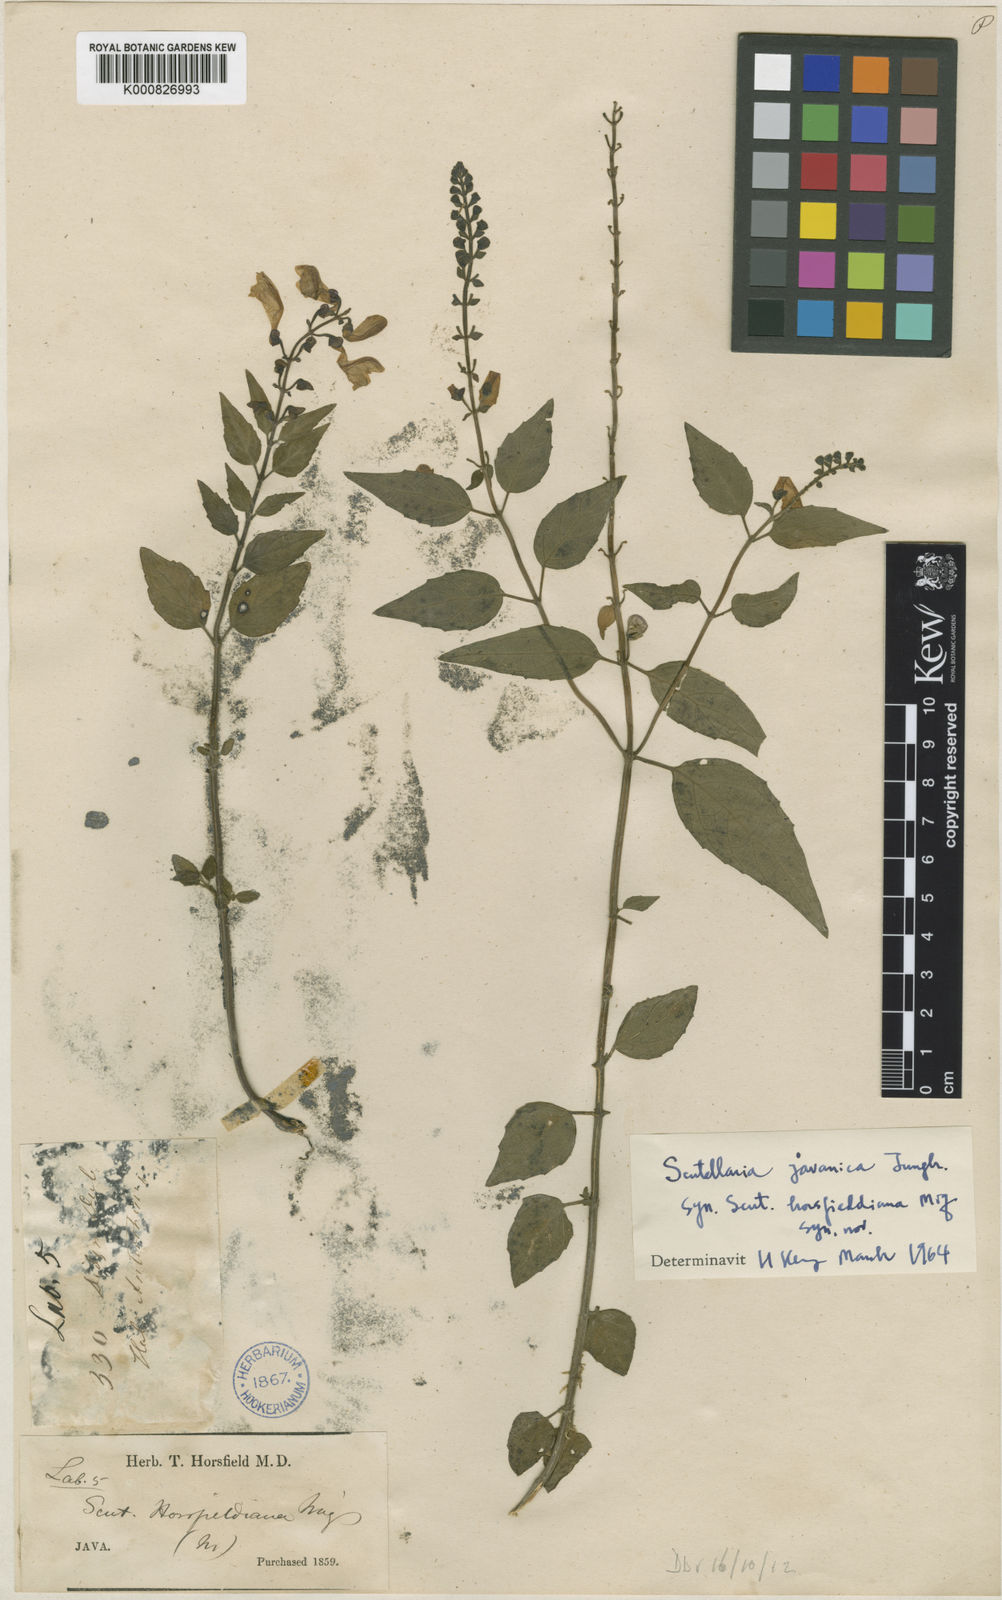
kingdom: Plantae
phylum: Tracheophyta
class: Magnoliopsida
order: Lamiales
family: Lamiaceae
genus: Scutellaria
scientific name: Scutellaria javanica
